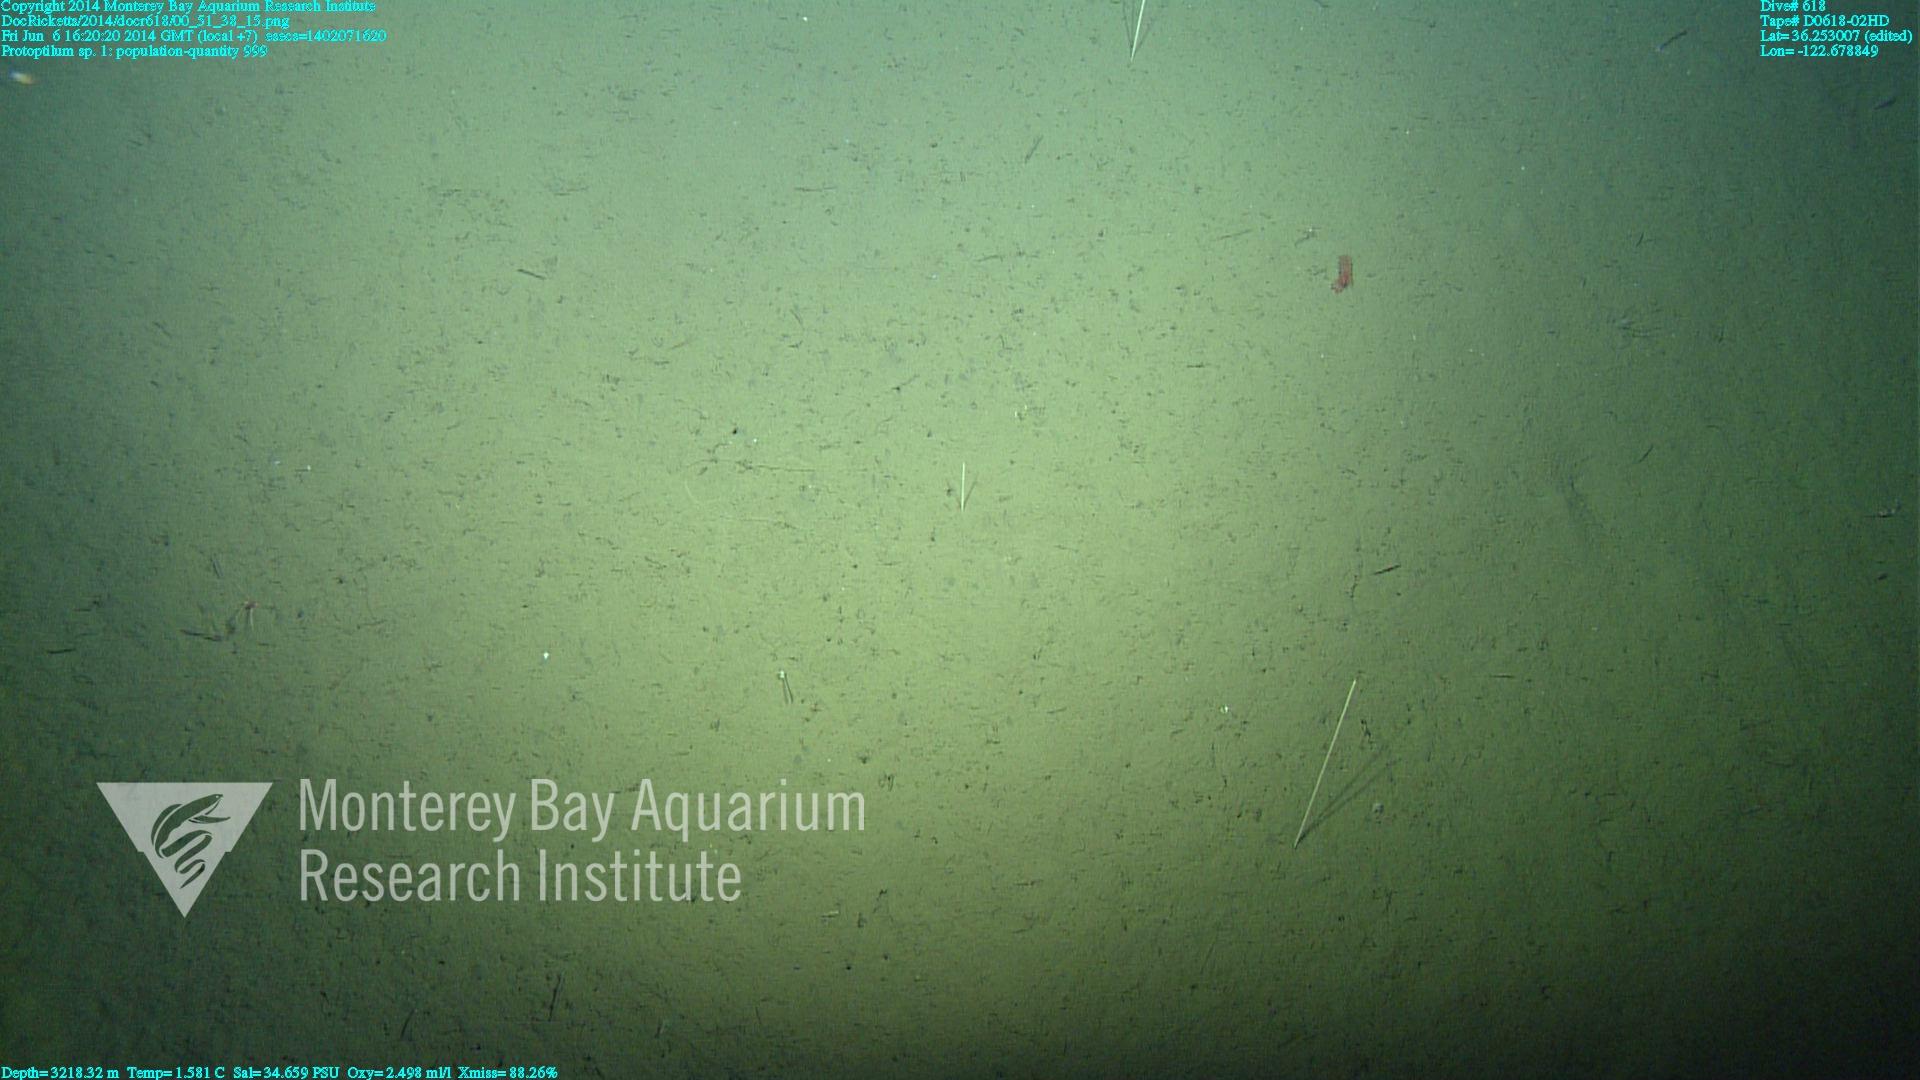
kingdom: Animalia
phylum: Cnidaria
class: Anthozoa
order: Scleralcyonacea
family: Protoptilidae
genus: Protoptilum
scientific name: Protoptilum
